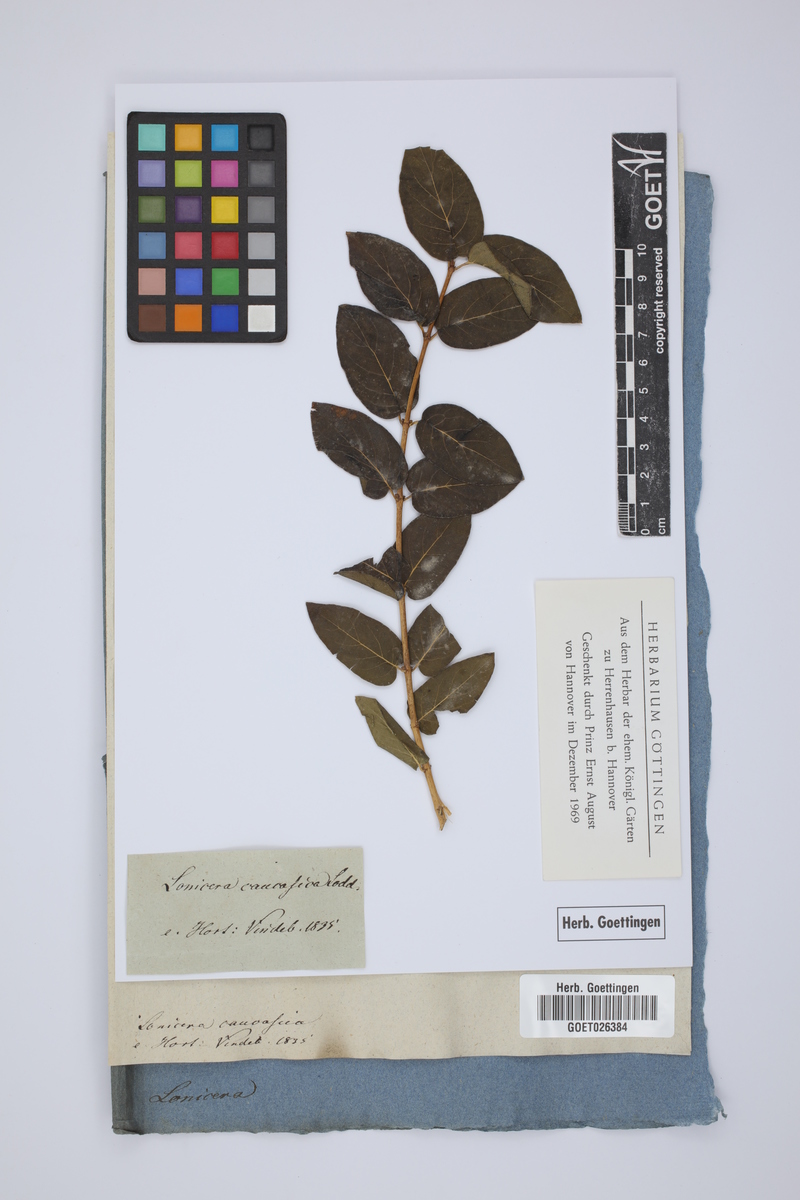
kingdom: Plantae
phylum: Tracheophyta
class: Magnoliopsida
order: Dipsacales
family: Caprifoliaceae
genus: Lonicera
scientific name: Lonicera caucasica
